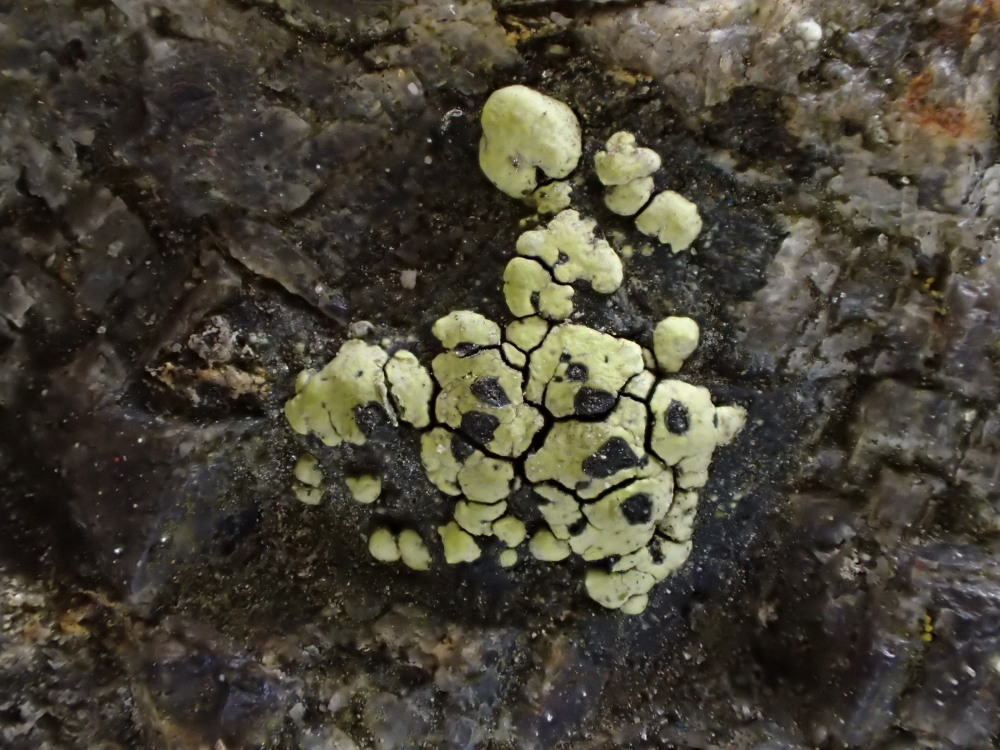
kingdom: Fungi
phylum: Ascomycota
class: Lecanoromycetes
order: Rhizocarpales
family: Rhizocarpaceae
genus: Rhizocarpon
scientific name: Rhizocarpon lecanorinum
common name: krave-landkortlav
